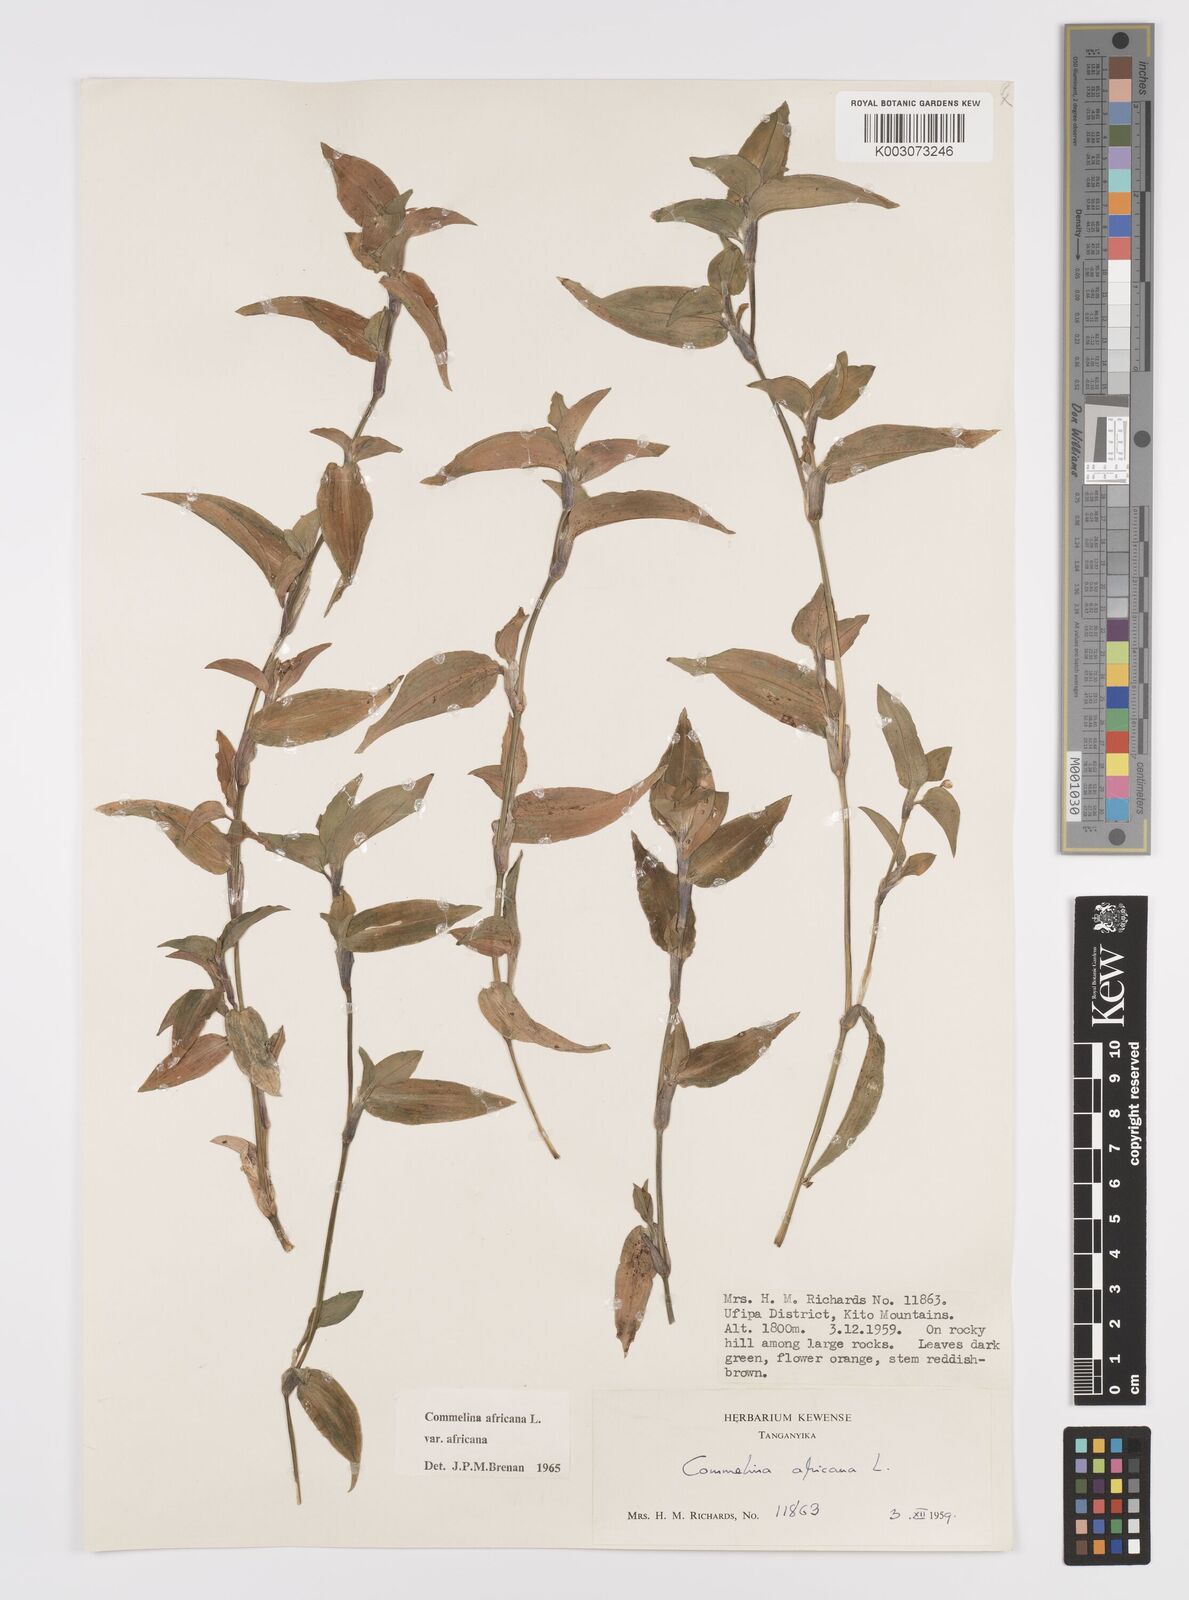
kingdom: Plantae
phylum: Tracheophyta
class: Liliopsida
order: Commelinales
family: Commelinaceae
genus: Commelina
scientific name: Commelina africana
